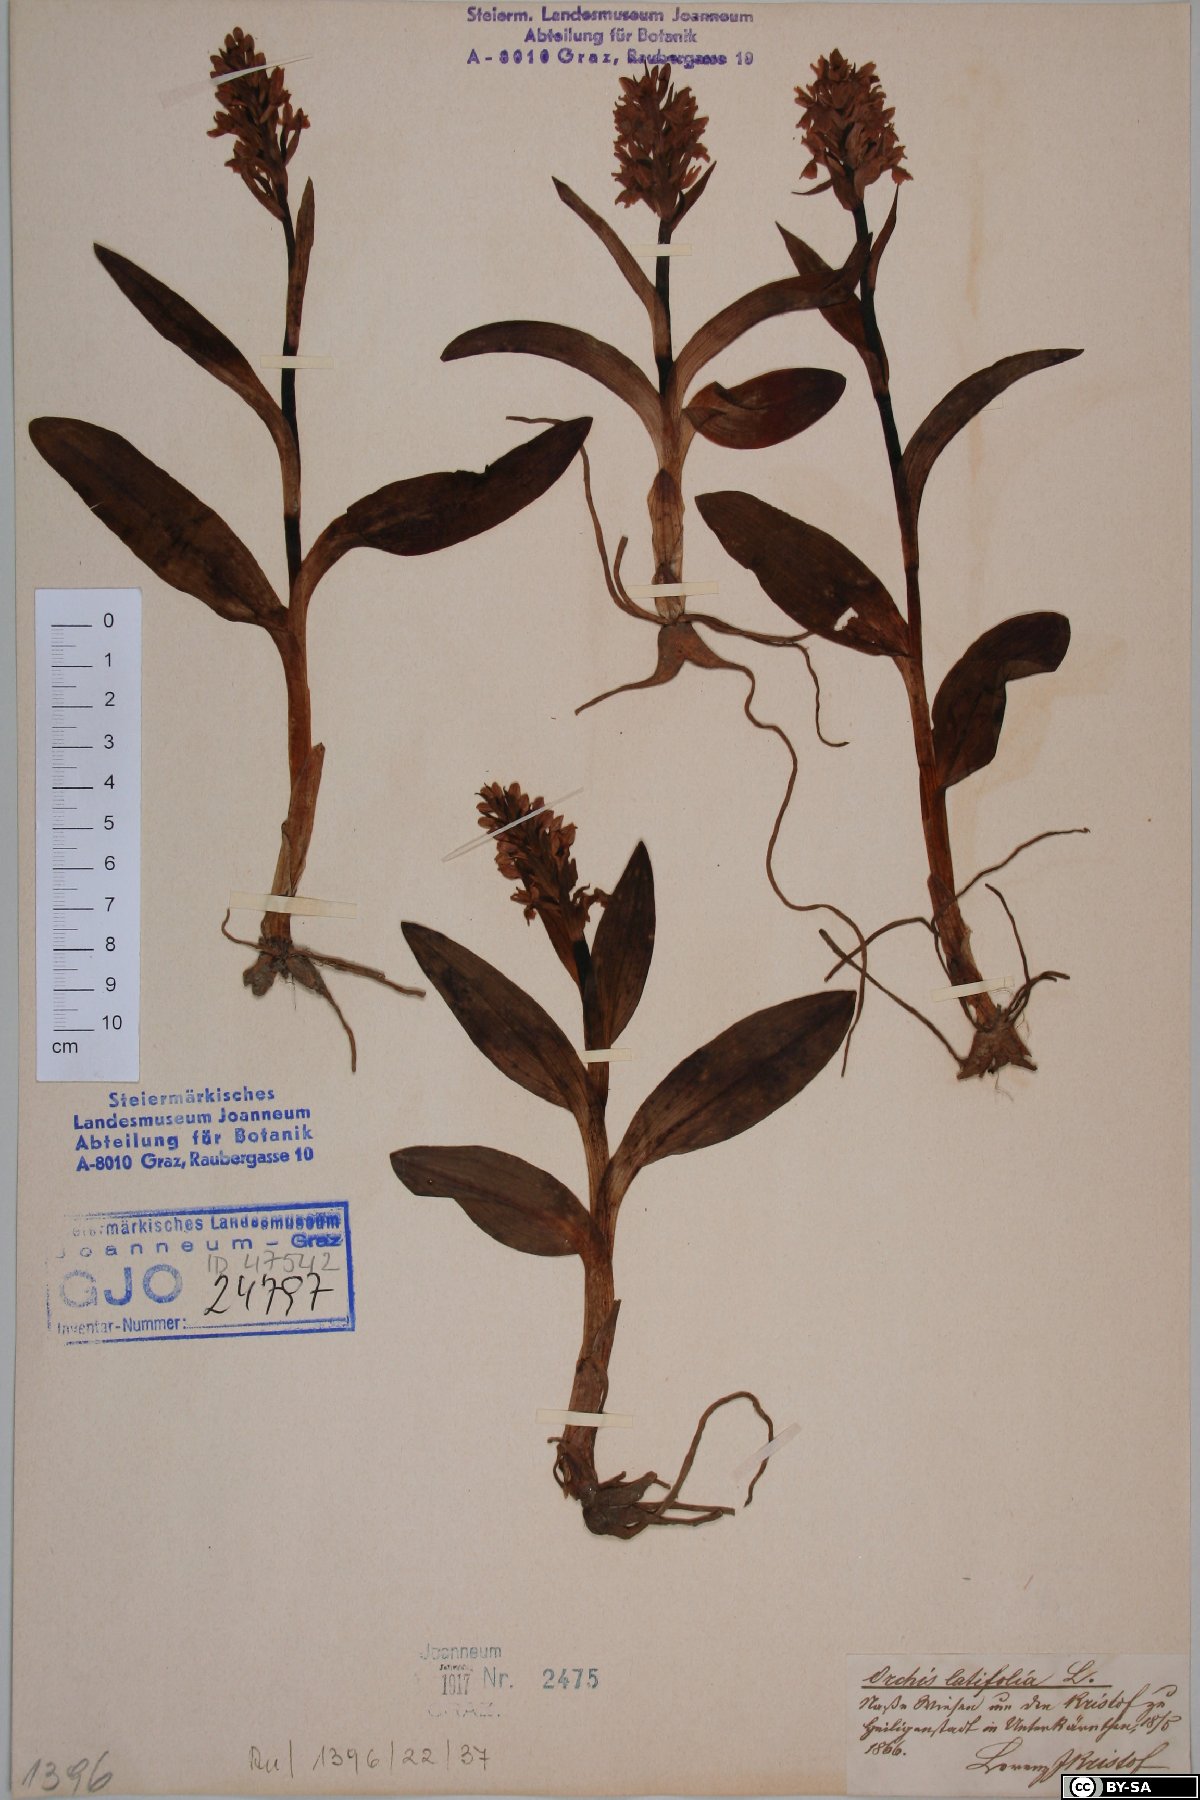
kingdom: Plantae
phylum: Tracheophyta
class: Liliopsida
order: Asparagales
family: Orchidaceae
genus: Dactylorhiza
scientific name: Dactylorhiza incarnata
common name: Early marsh-orchid
